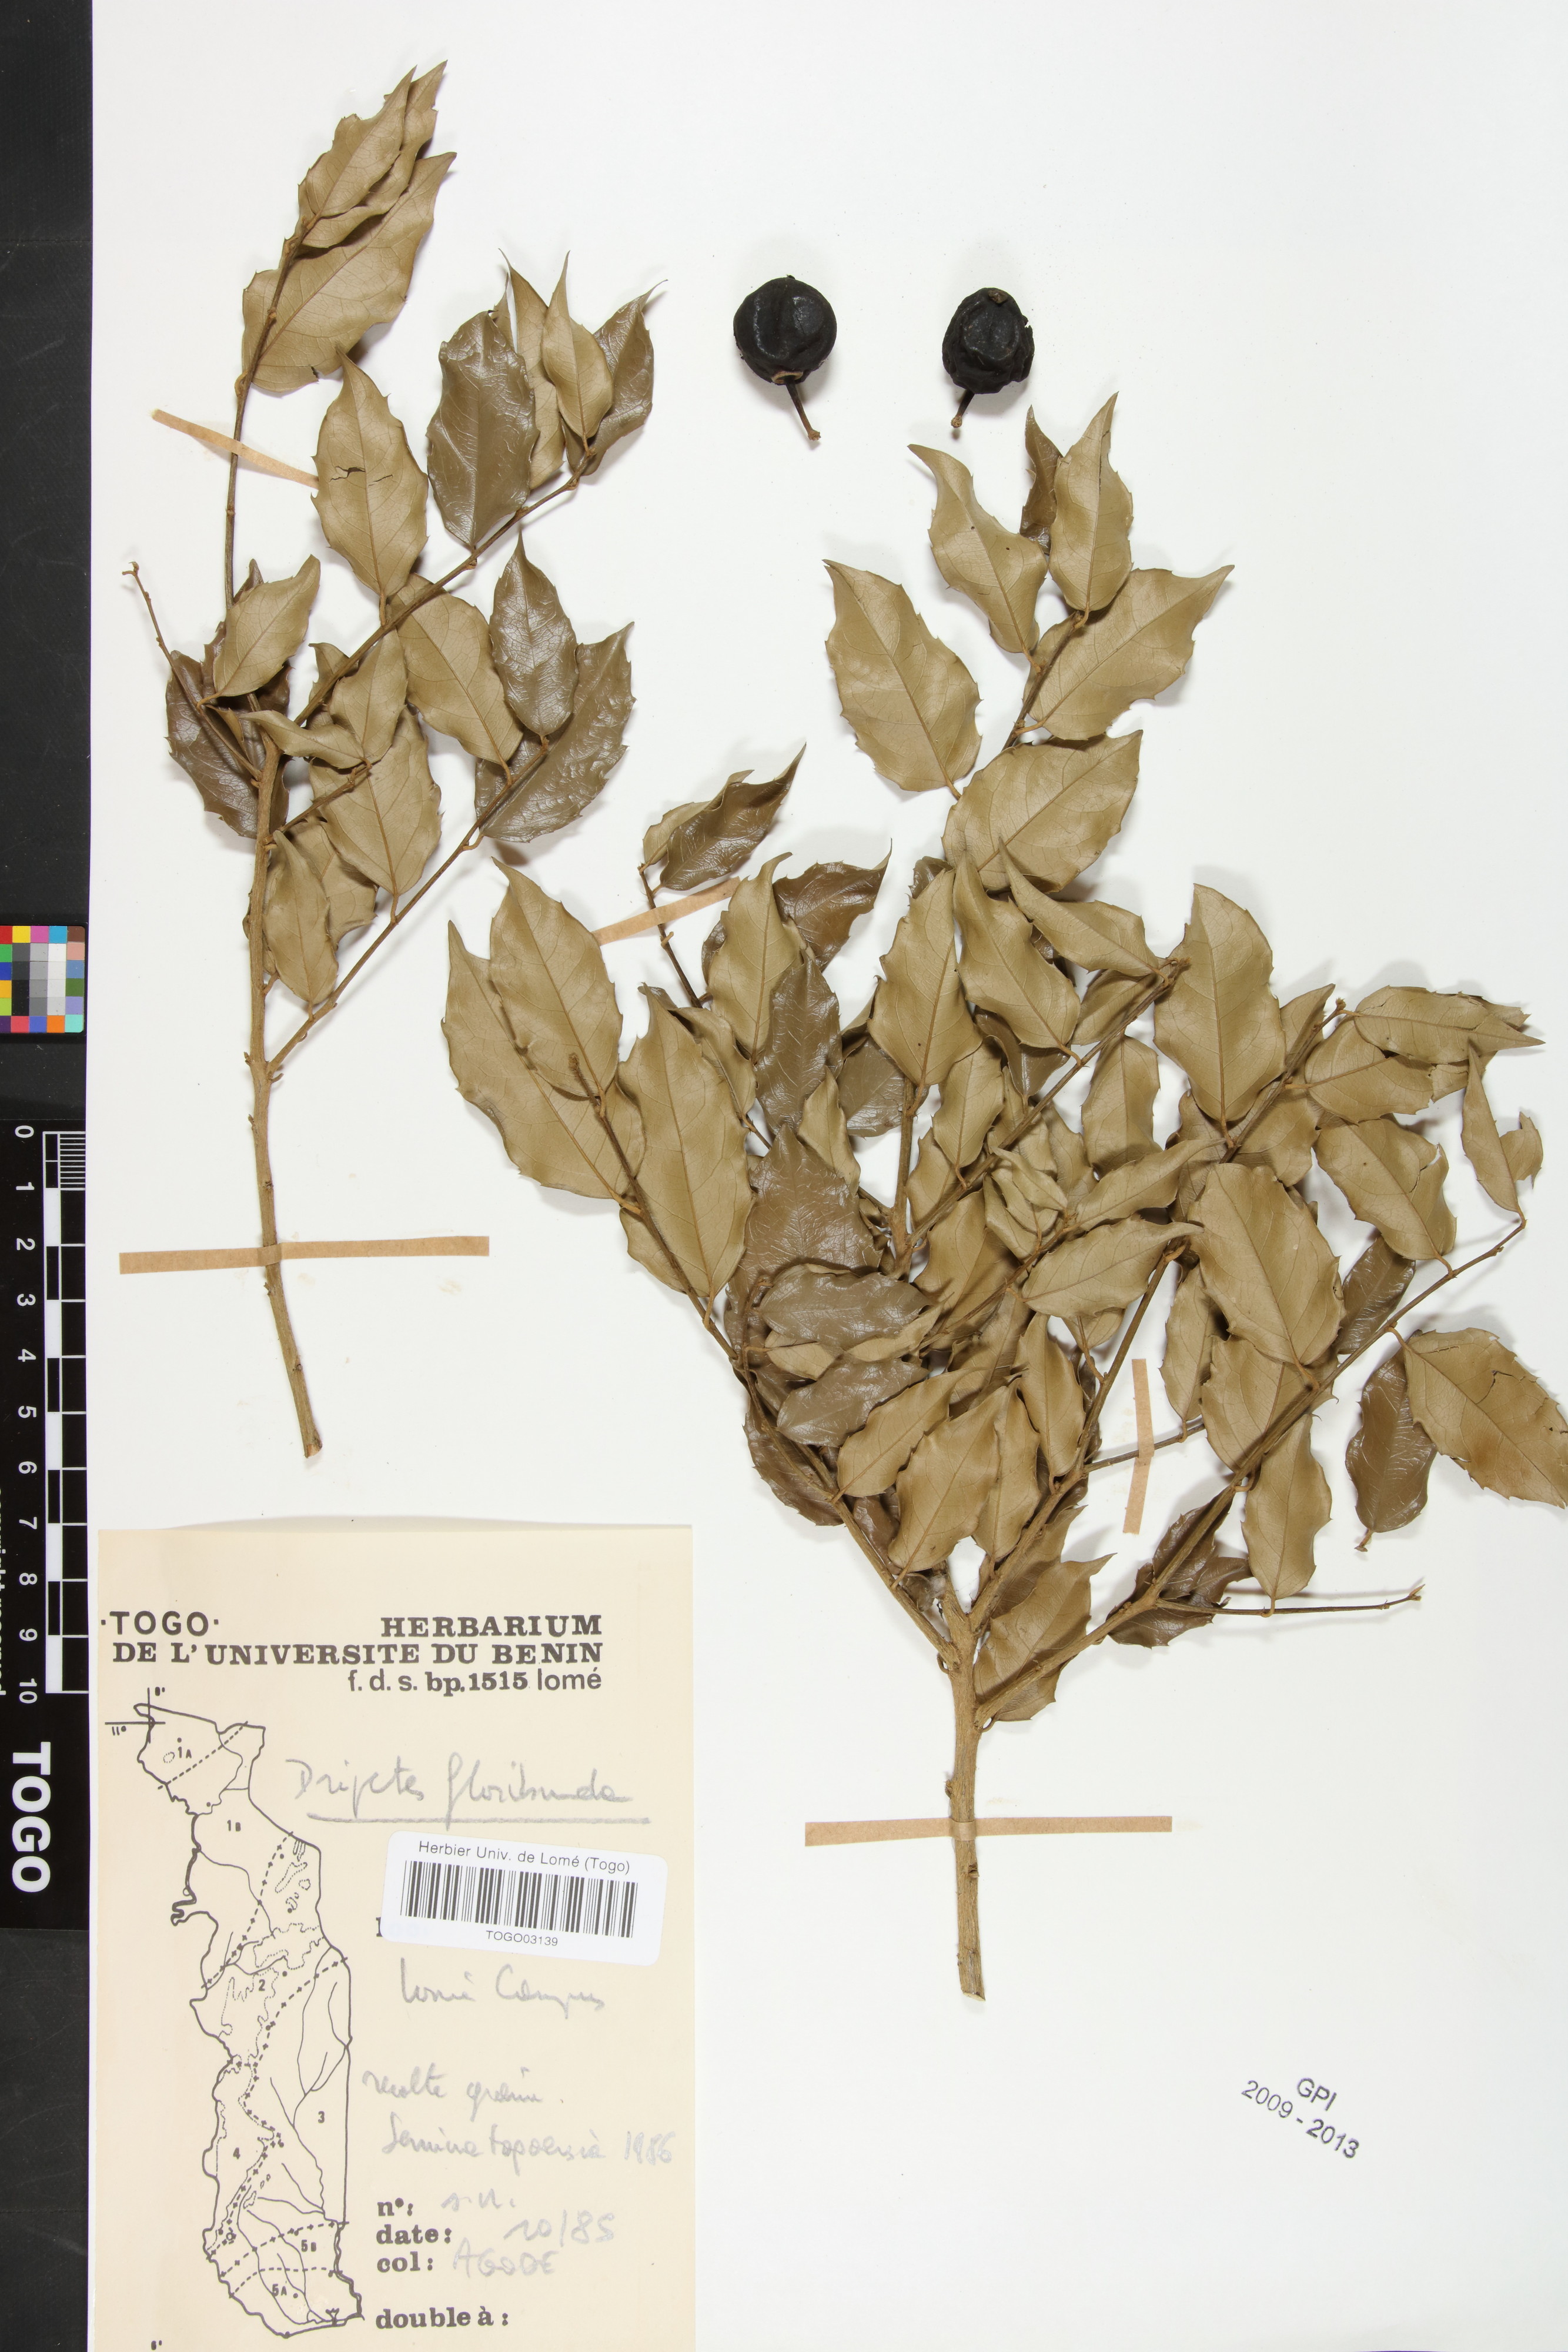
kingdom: Plantae
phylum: Tracheophyta
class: Magnoliopsida
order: Malpighiales
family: Putranjivaceae
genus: Drypetes
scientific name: Drypetes floribunda
